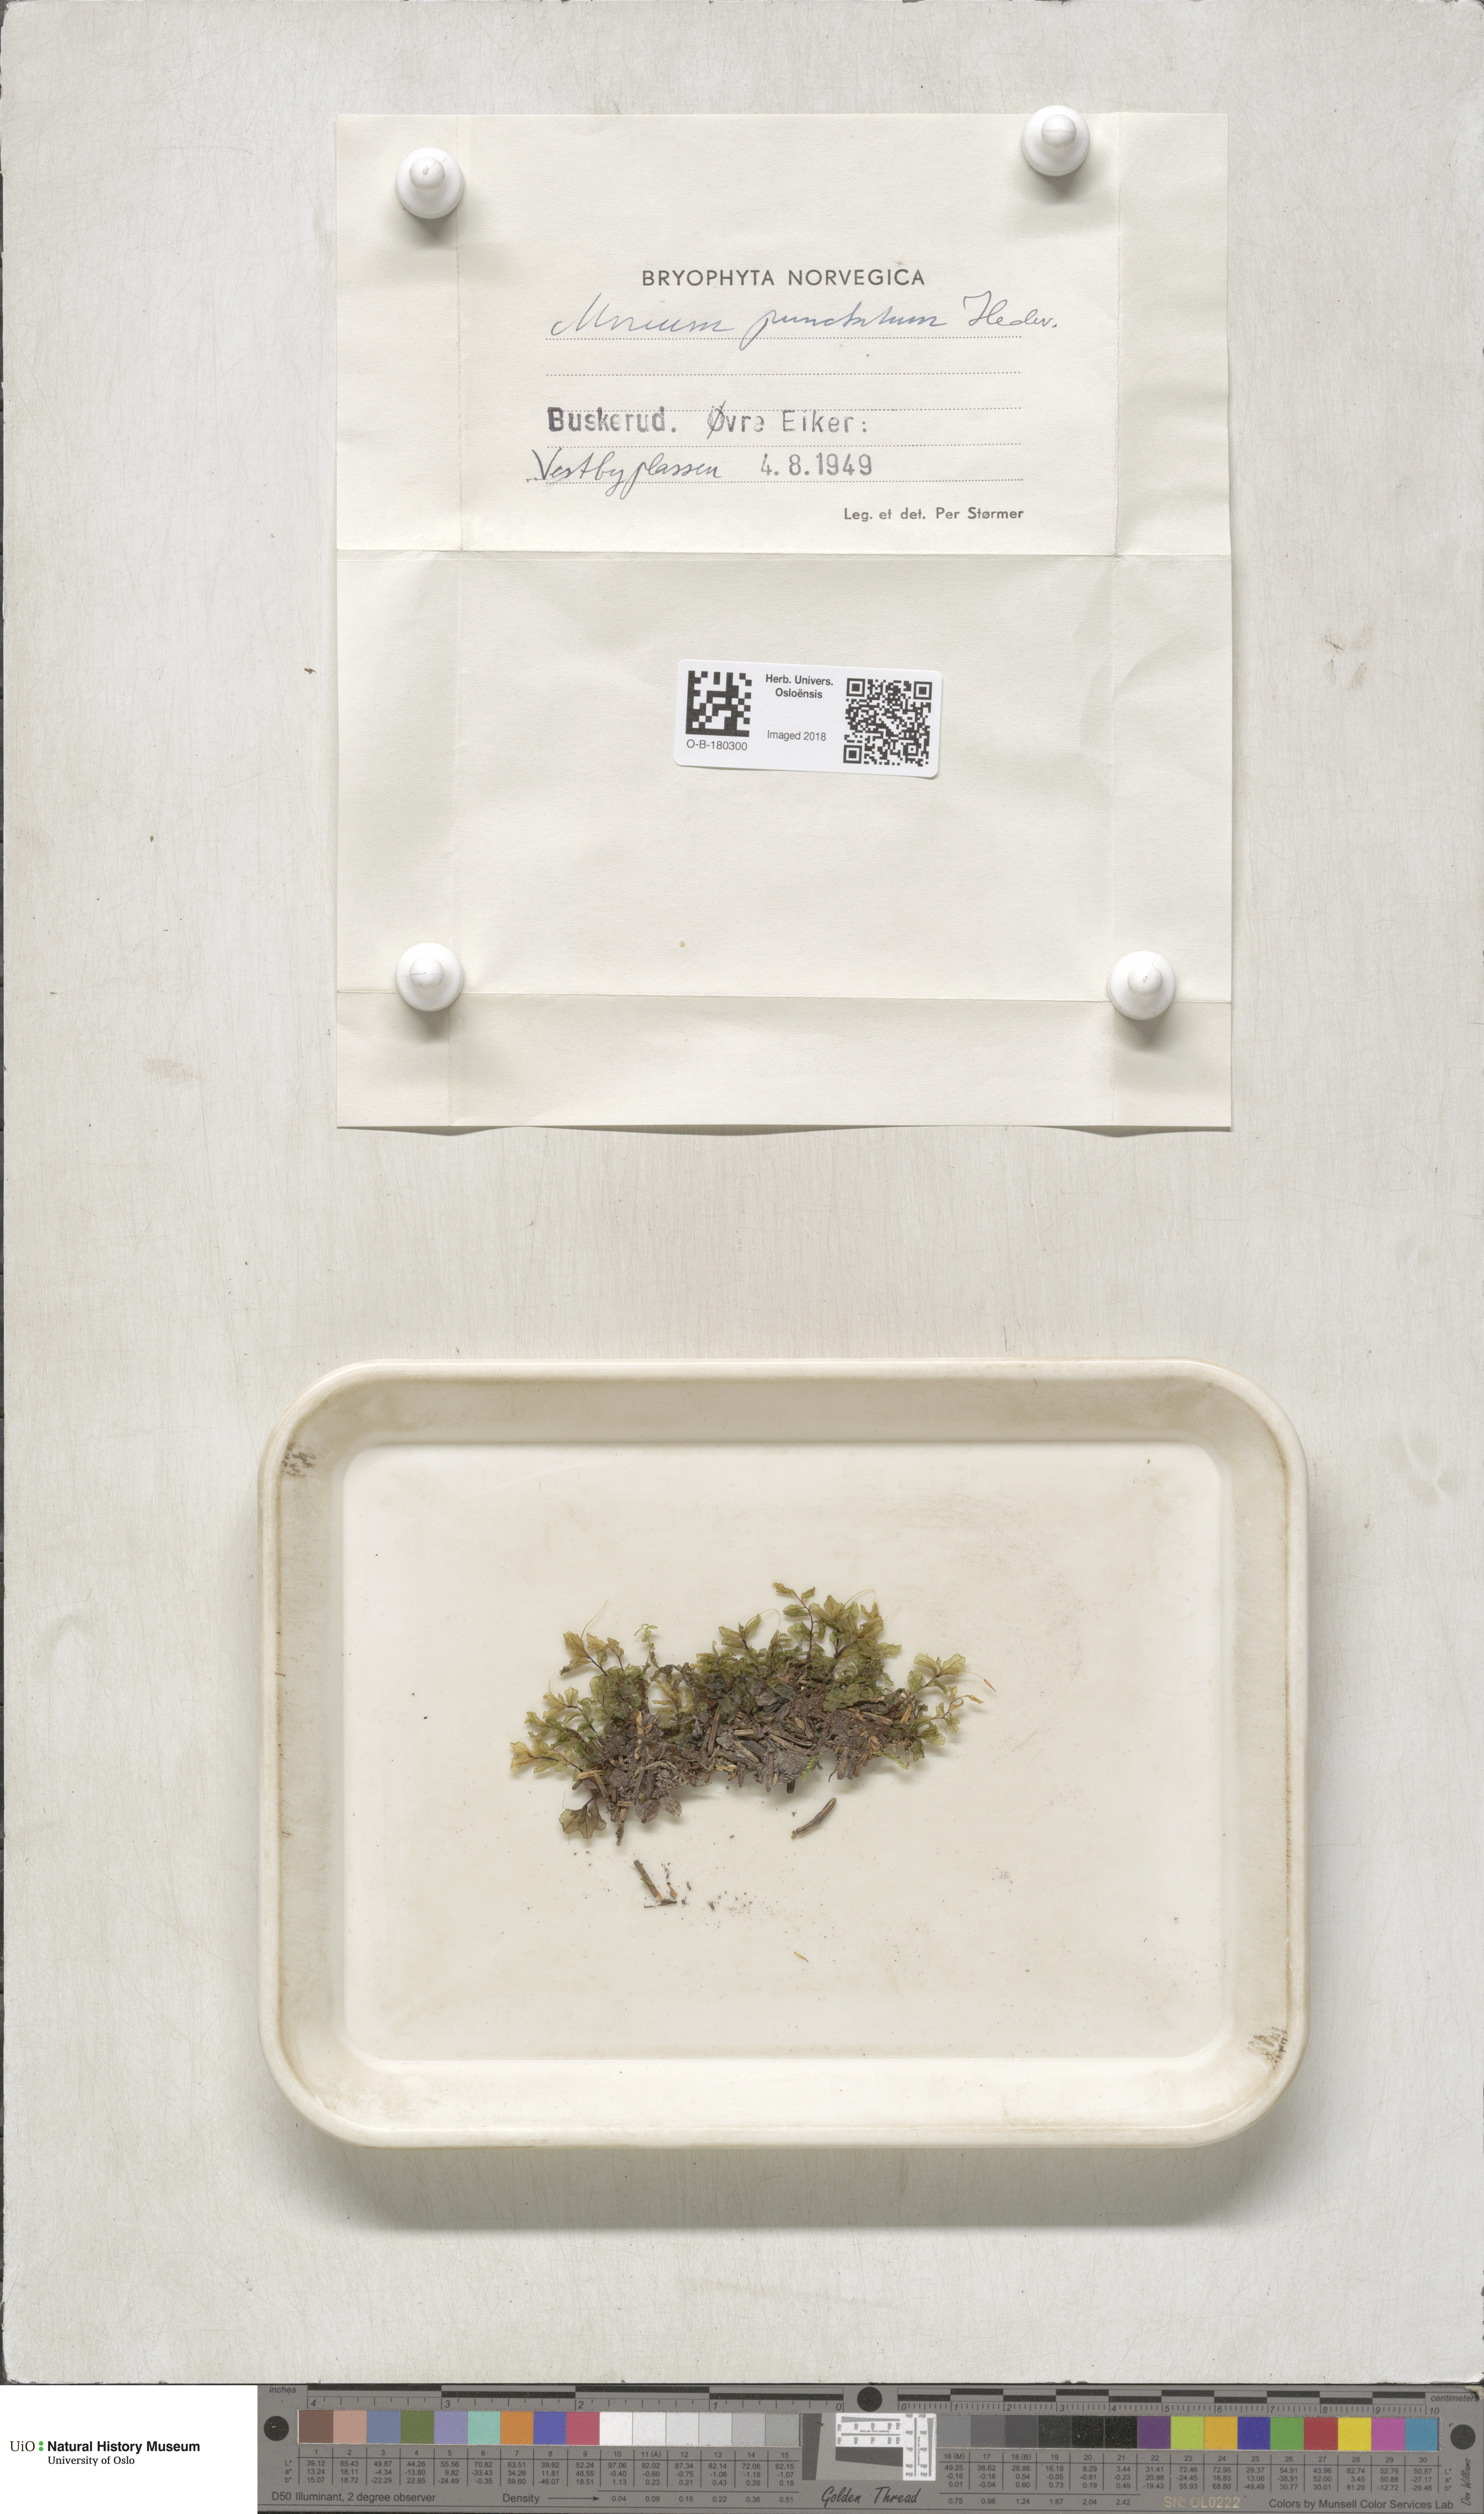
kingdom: Plantae
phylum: Bryophyta
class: Bryopsida
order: Bryales
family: Mniaceae
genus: Rhizomnium
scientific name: Rhizomnium punctatum
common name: Dotted leafy moss
